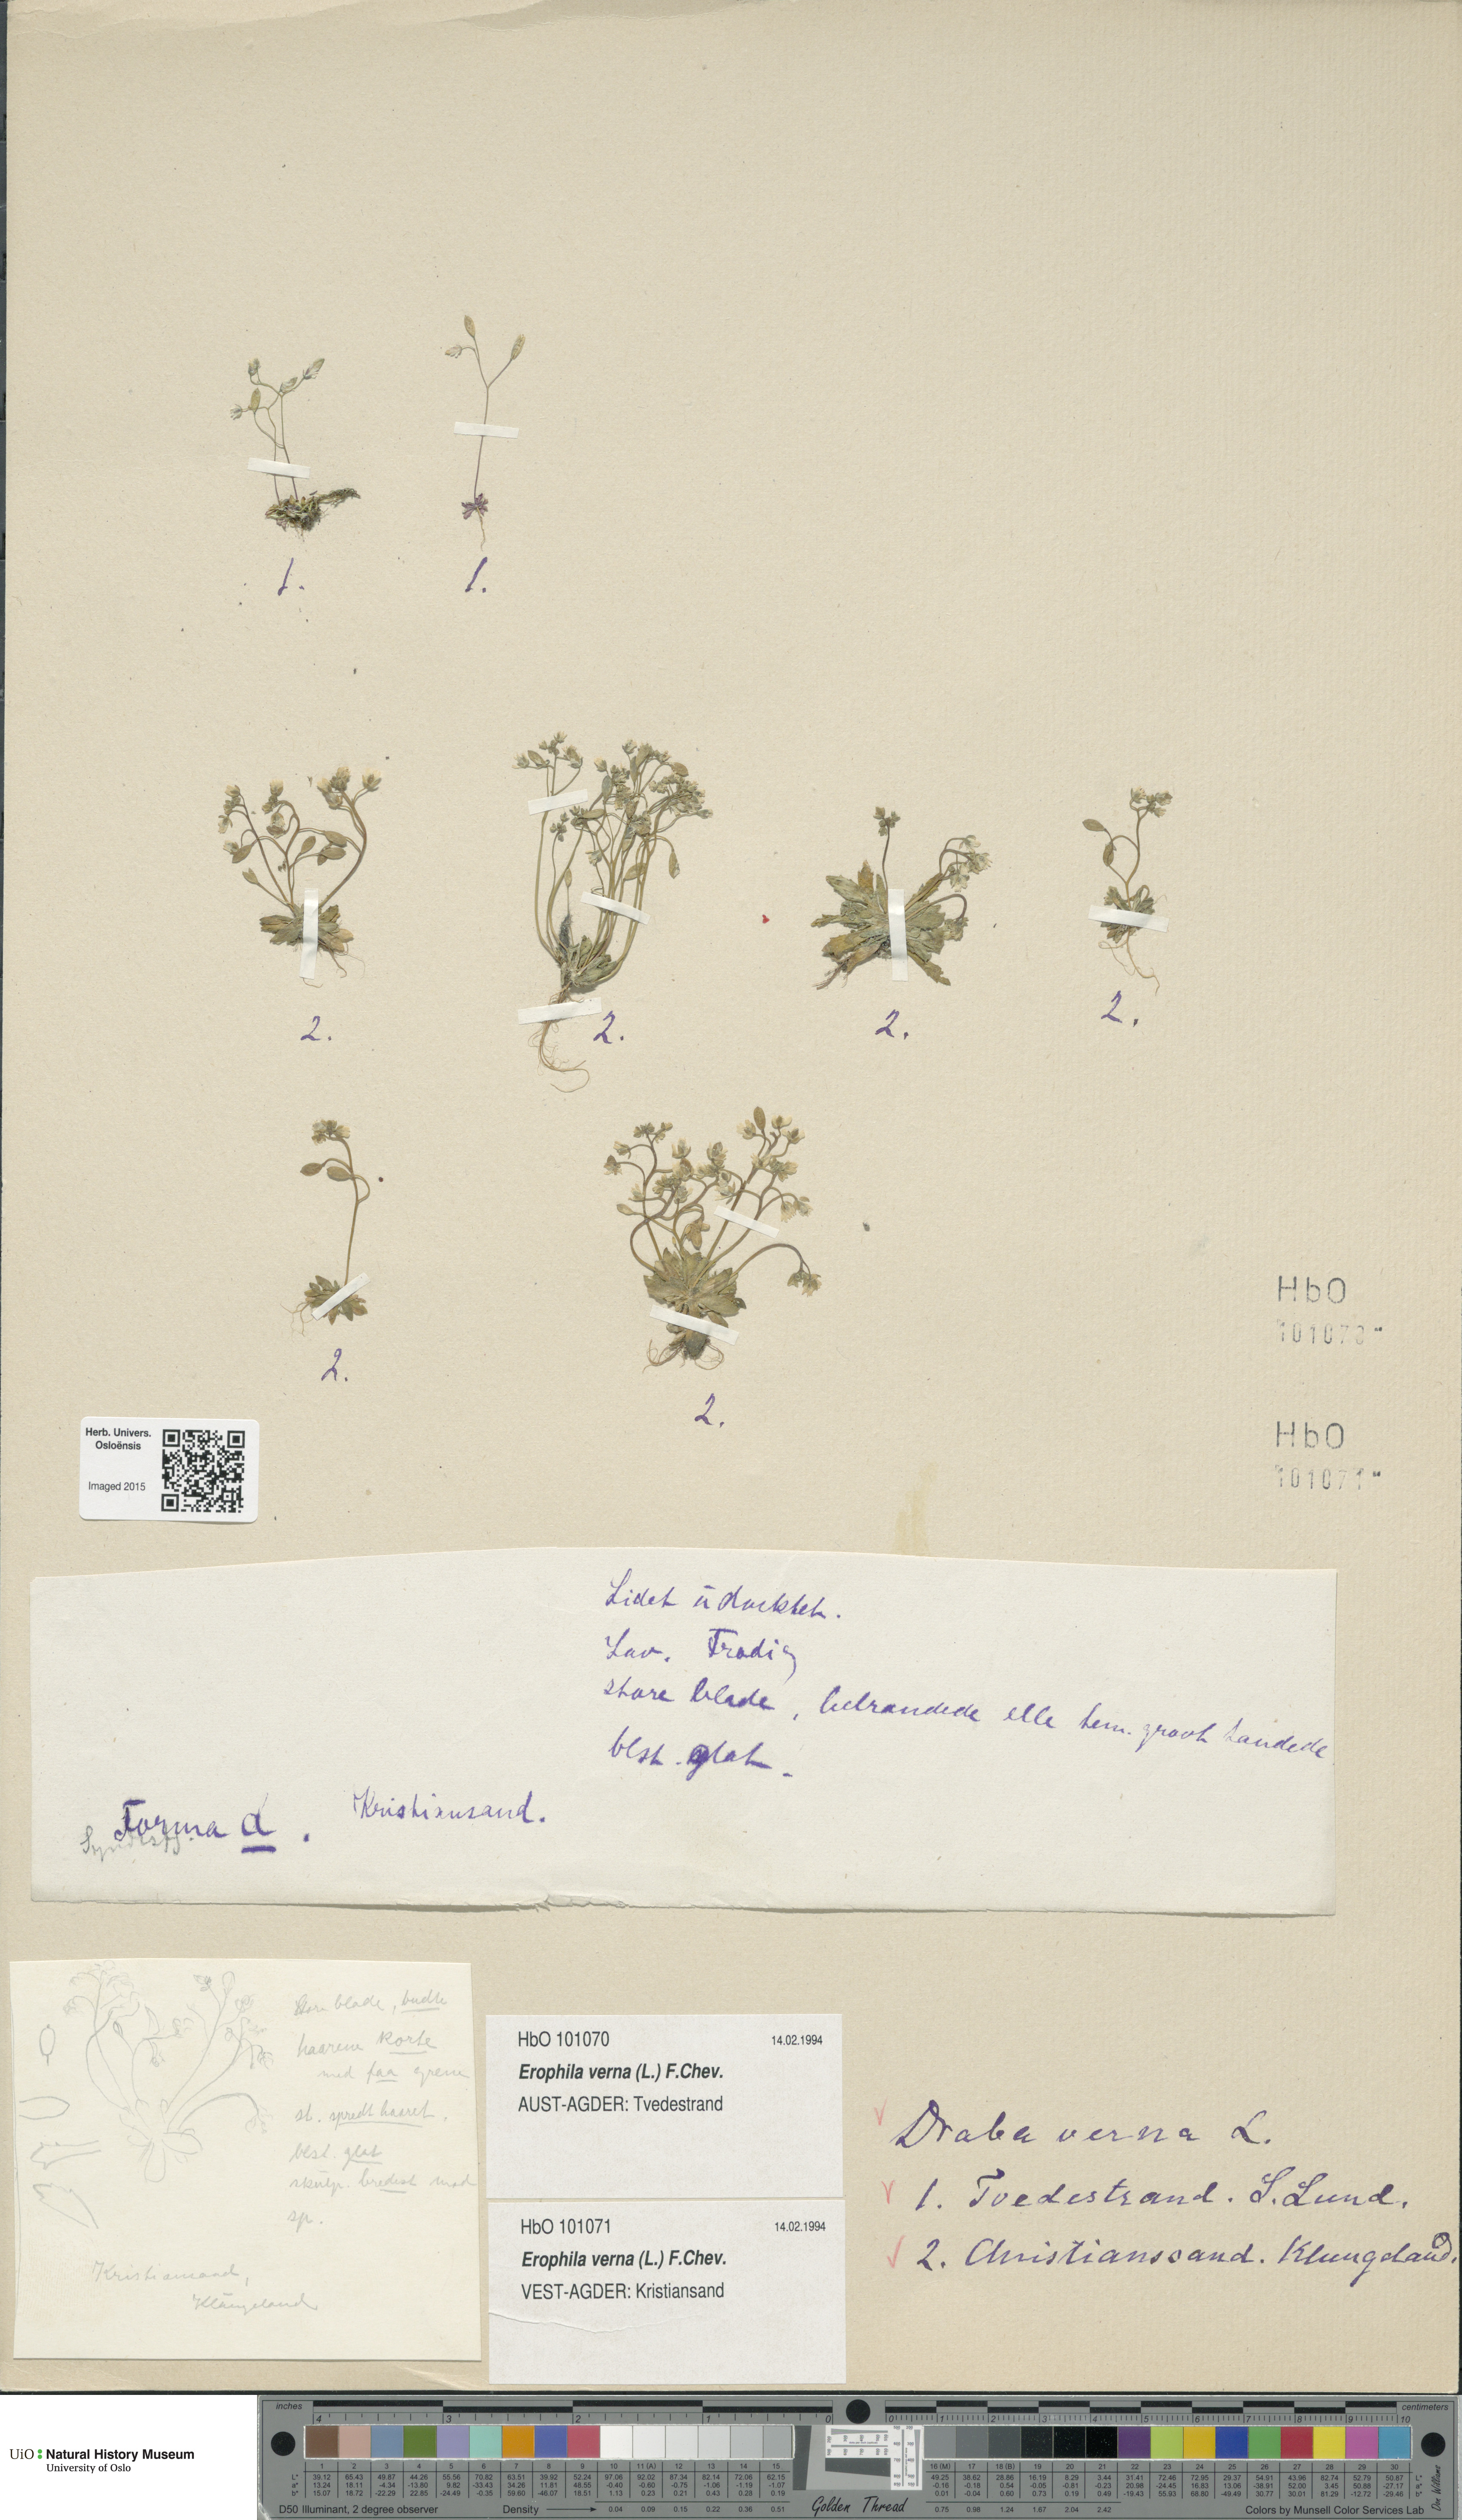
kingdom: Plantae
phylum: Tracheophyta
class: Magnoliopsida
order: Brassicales
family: Brassicaceae
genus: Draba
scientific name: Draba verna
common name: Spring draba
